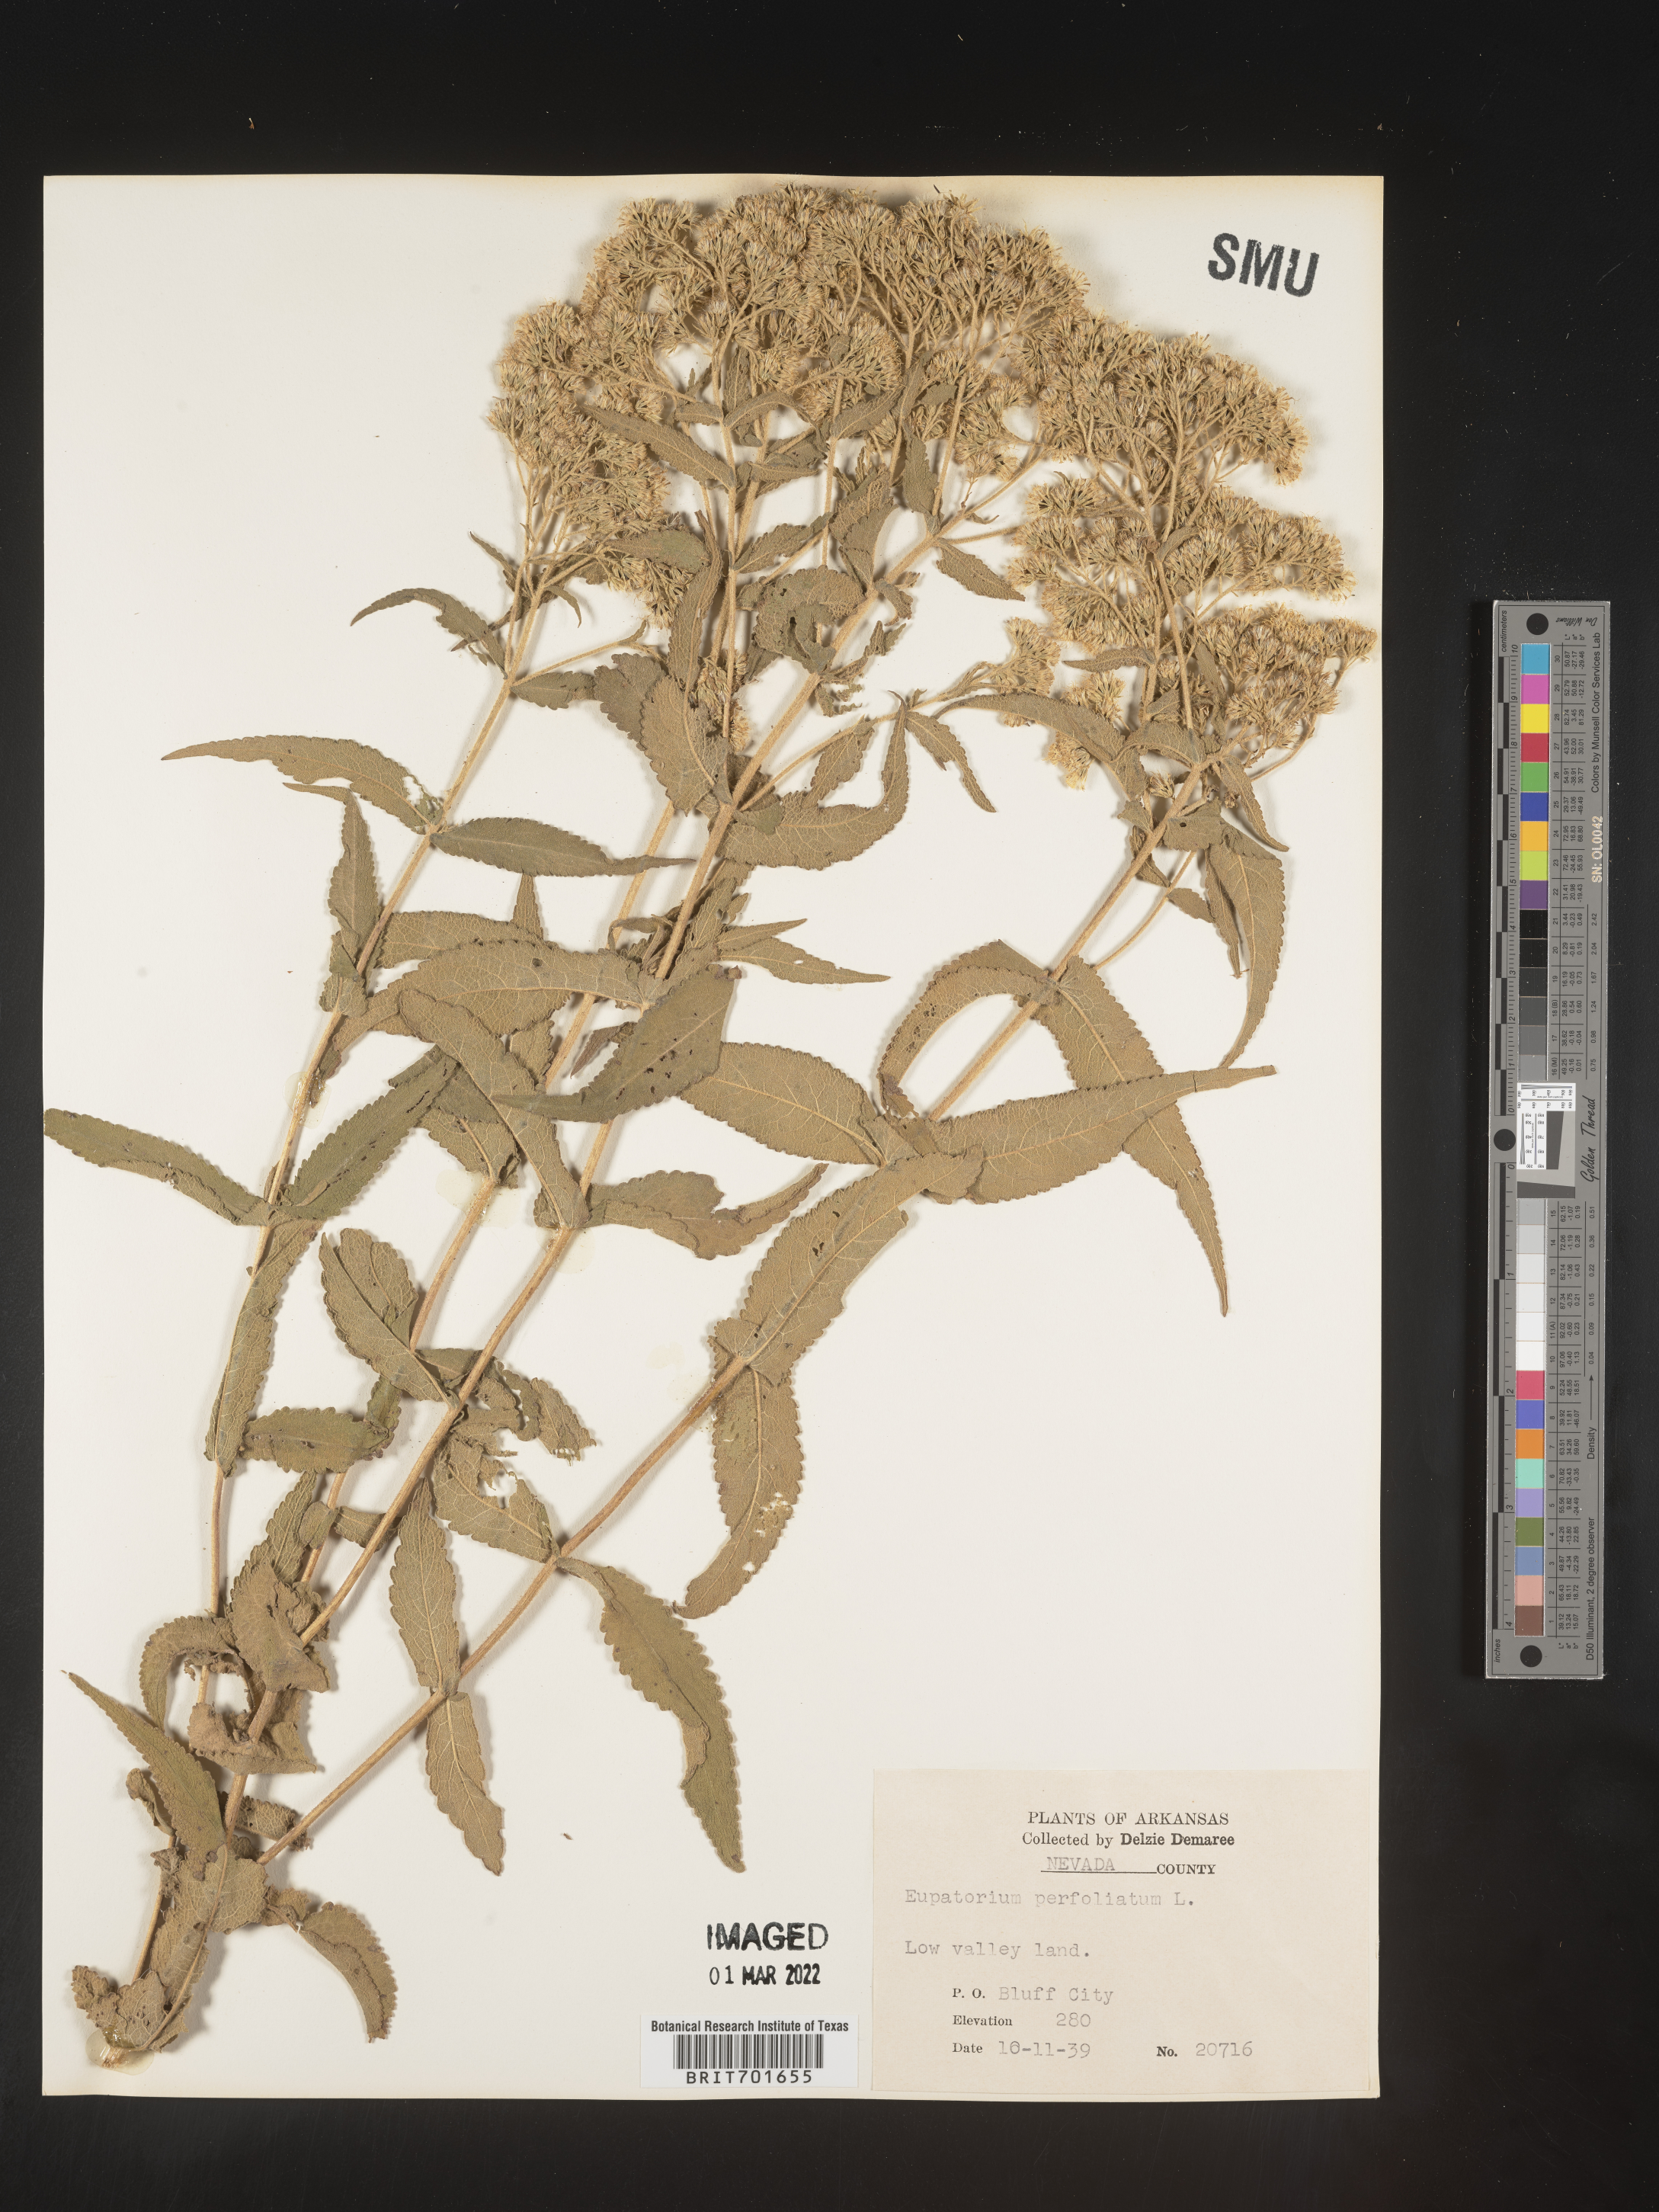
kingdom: Plantae
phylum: Tracheophyta
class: Magnoliopsida
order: Asterales
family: Asteraceae
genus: Eupatorium
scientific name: Eupatorium perfoliatum
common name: Boneset
